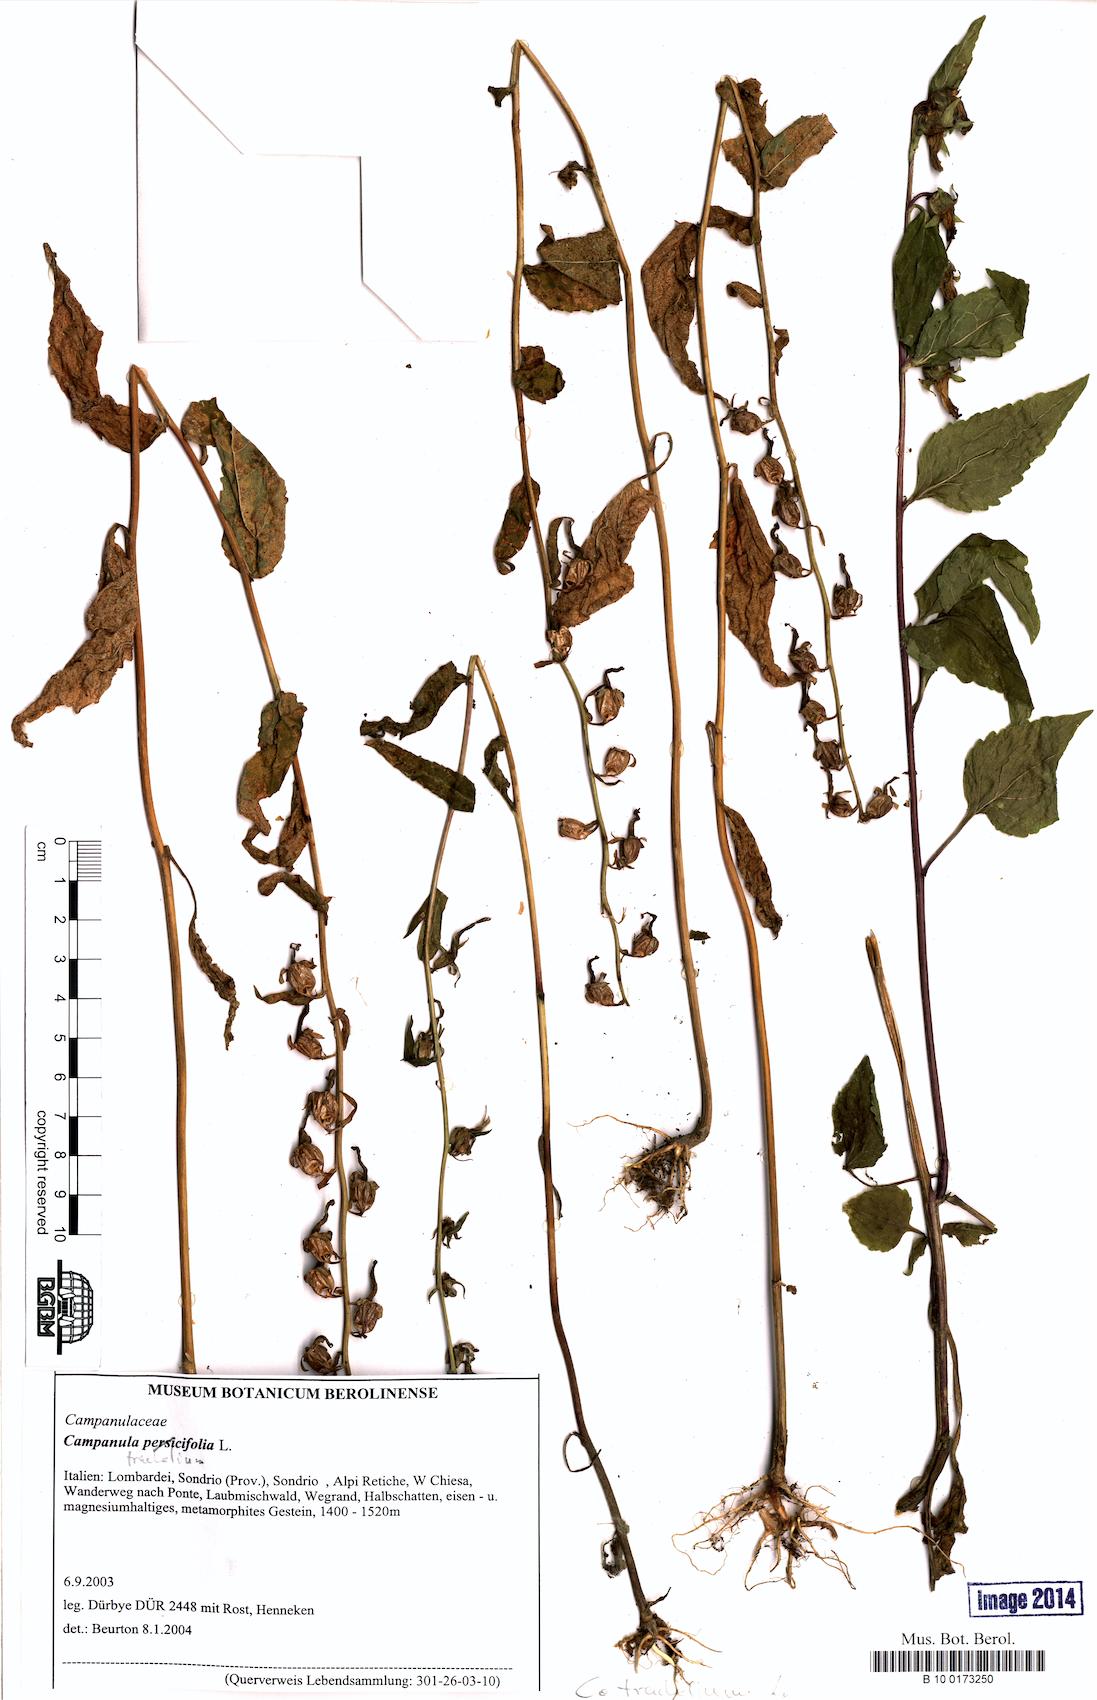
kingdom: Plantae
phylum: Tracheophyta
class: Magnoliopsida
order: Asterales
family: Campanulaceae
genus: Campanula
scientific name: Campanula trachelium
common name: Nettle-leaved bellflower
